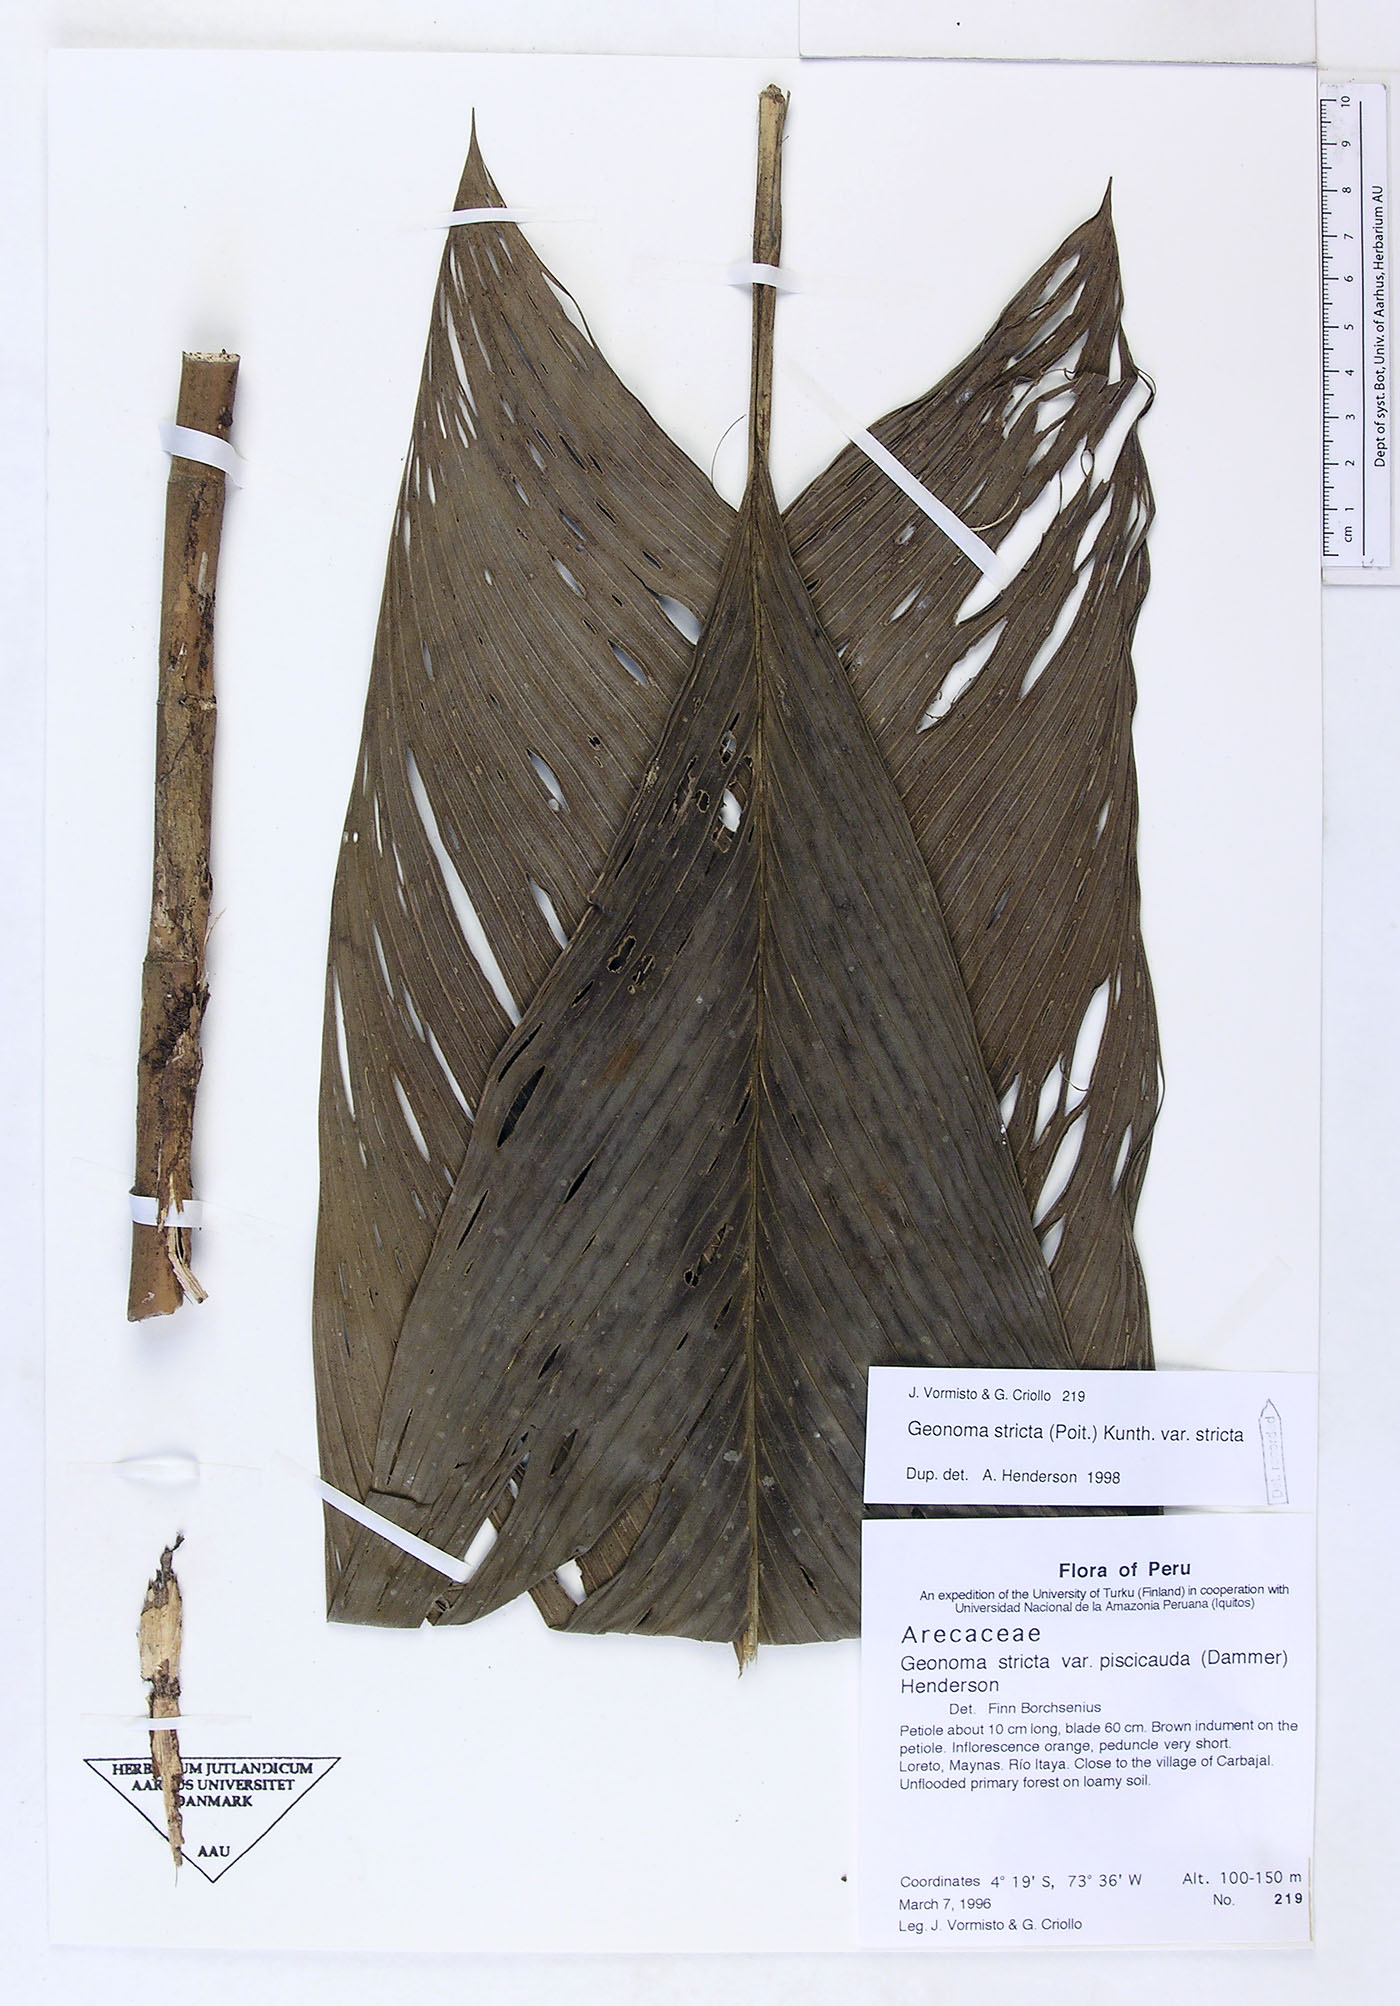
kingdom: Plantae
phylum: Tracheophyta
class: Liliopsida
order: Arecales
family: Arecaceae
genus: Geonoma
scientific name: Geonoma stricta
